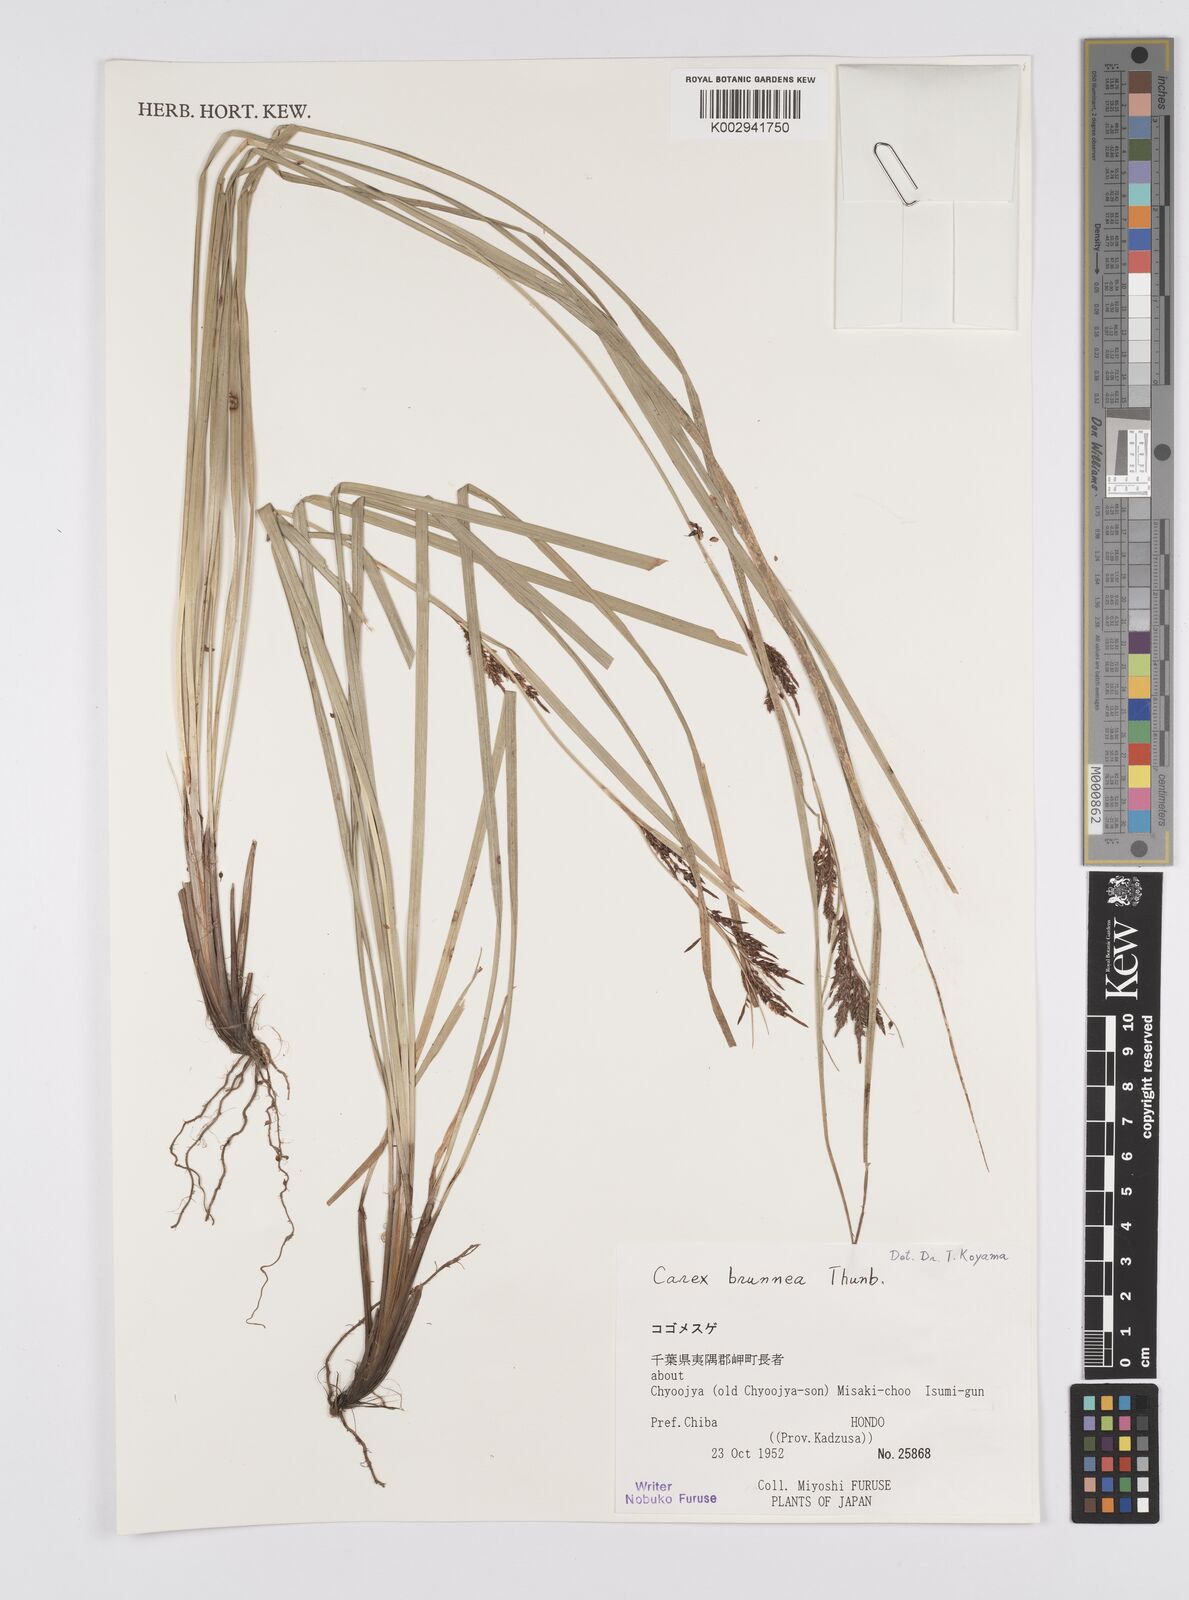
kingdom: Plantae
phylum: Tracheophyta
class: Liliopsida
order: Poales
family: Cyperaceae
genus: Carex
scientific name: Carex brunnea
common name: Greater brown sedge
